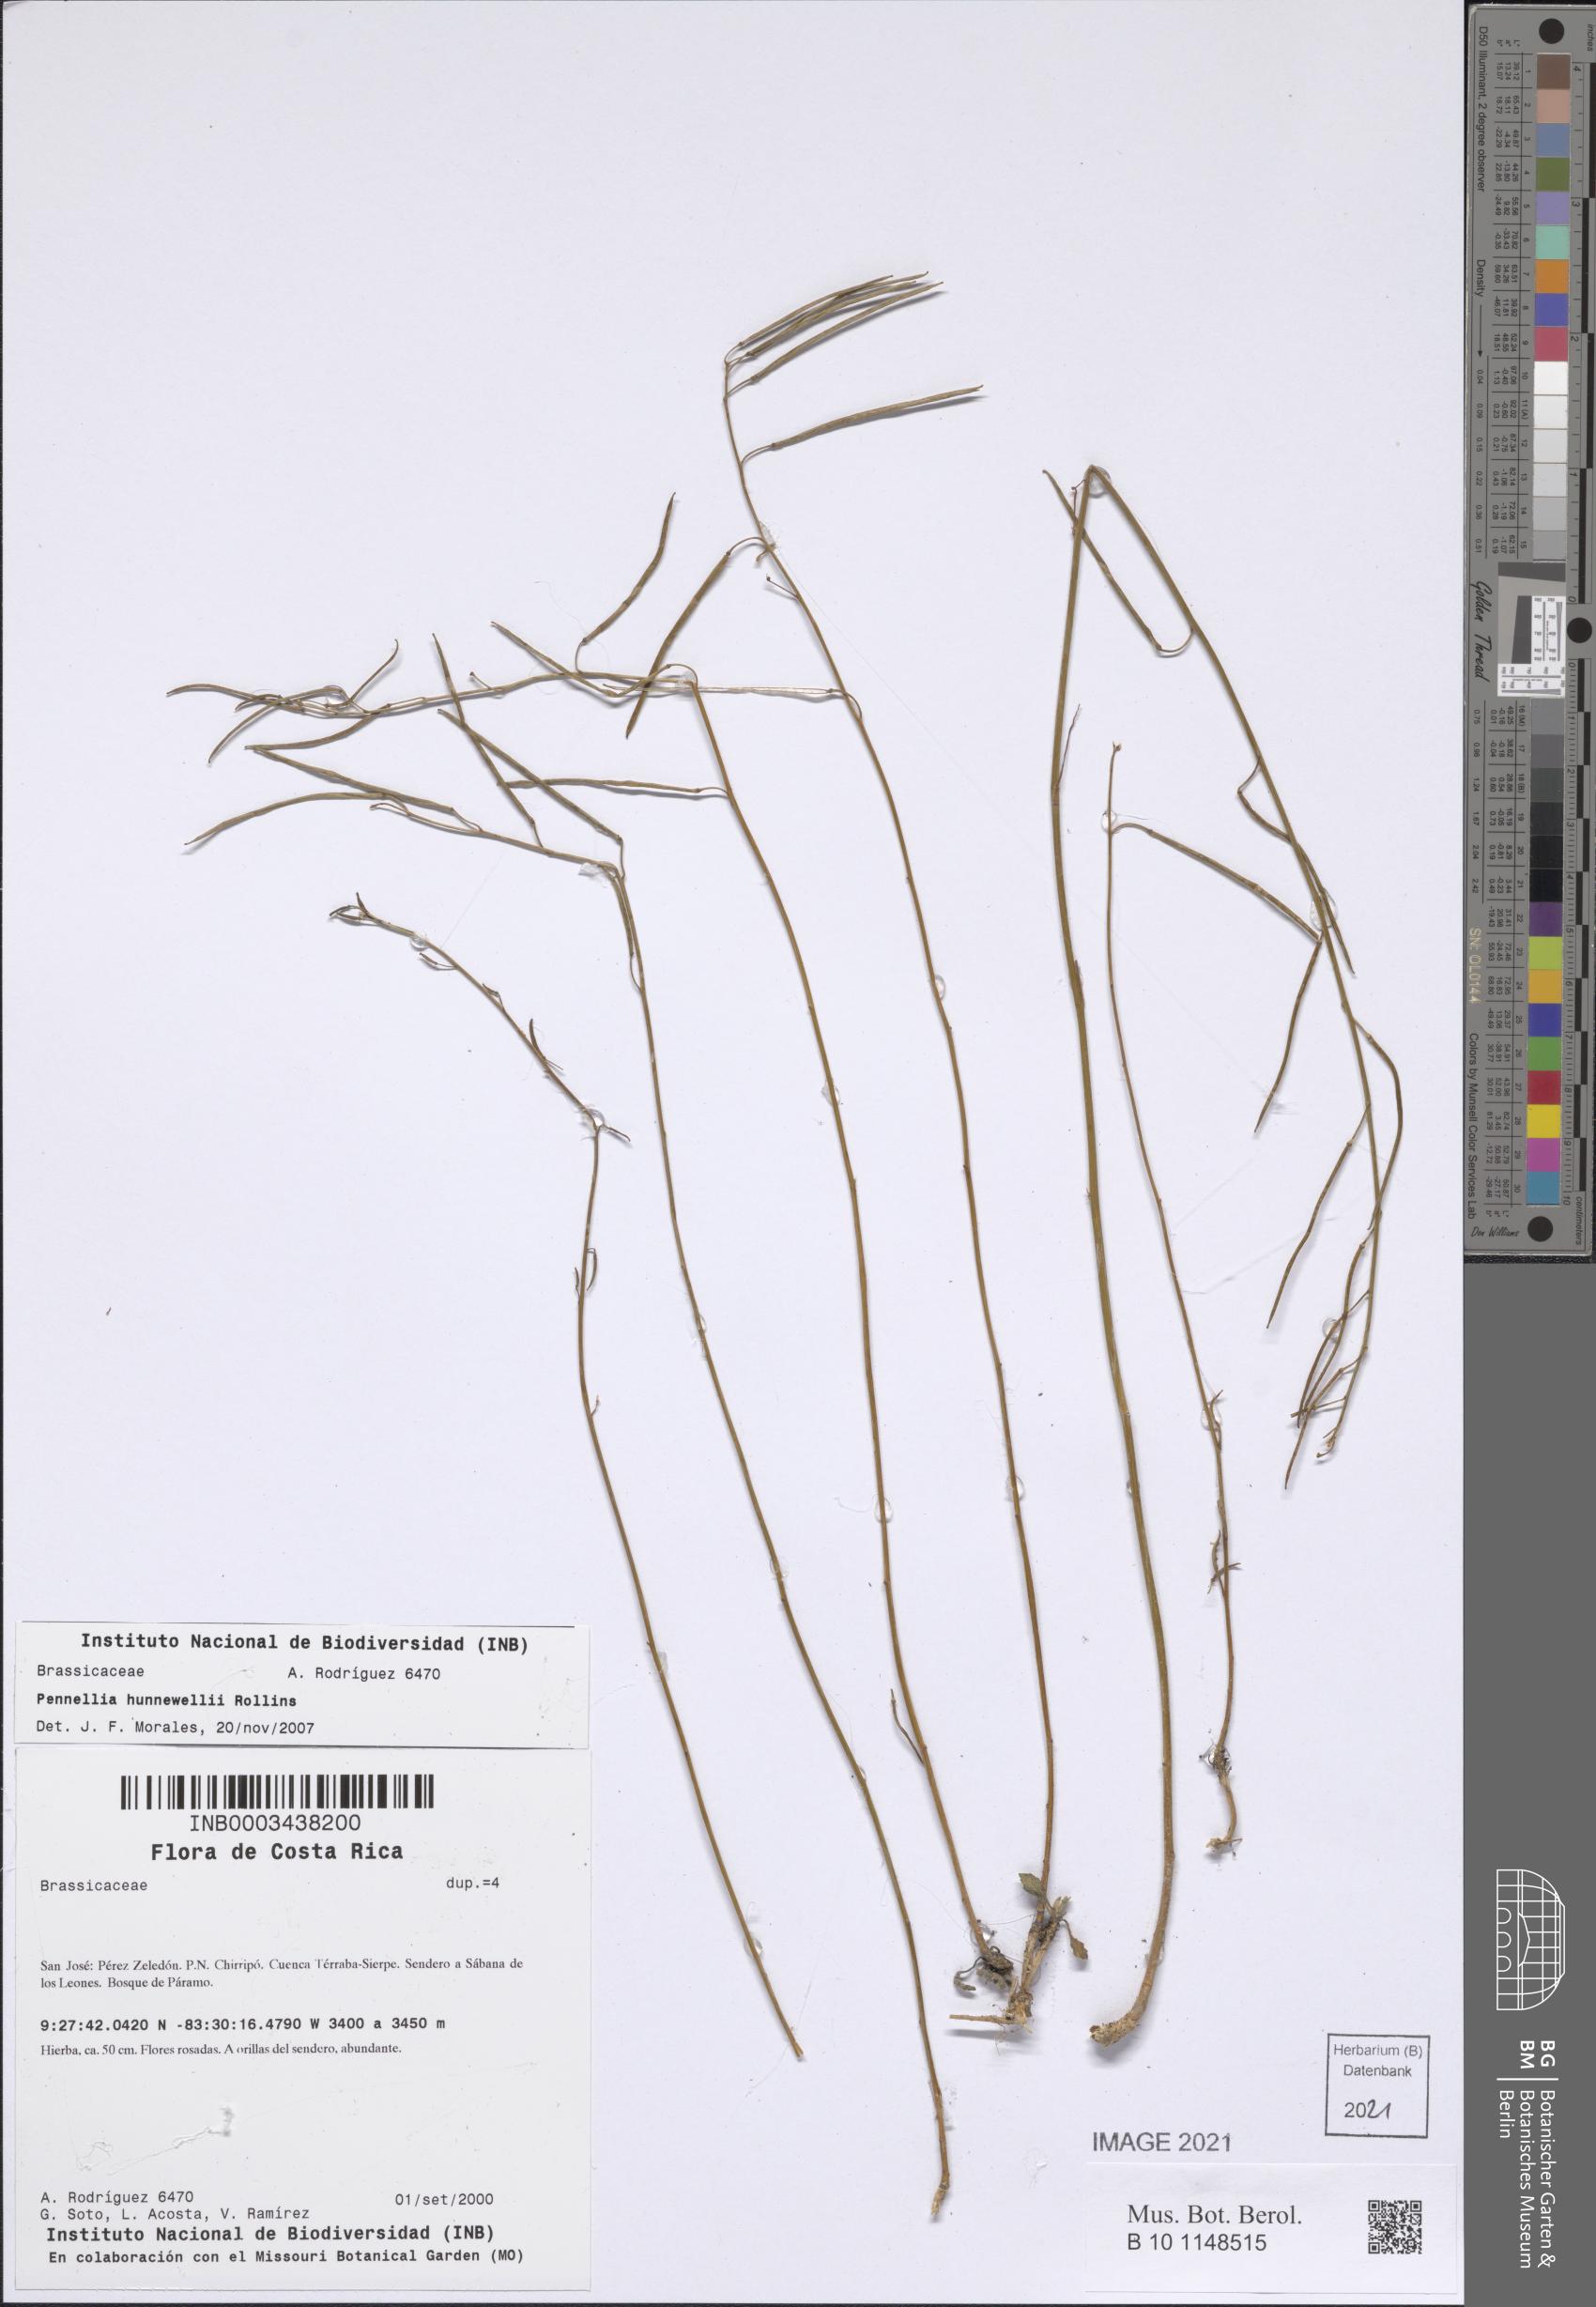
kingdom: Plantae
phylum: Tracheophyta
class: Magnoliopsida
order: Brassicales
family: Brassicaceae
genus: Pennellia
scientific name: Pennellia longifolia
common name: Longleaf mock thelypody
